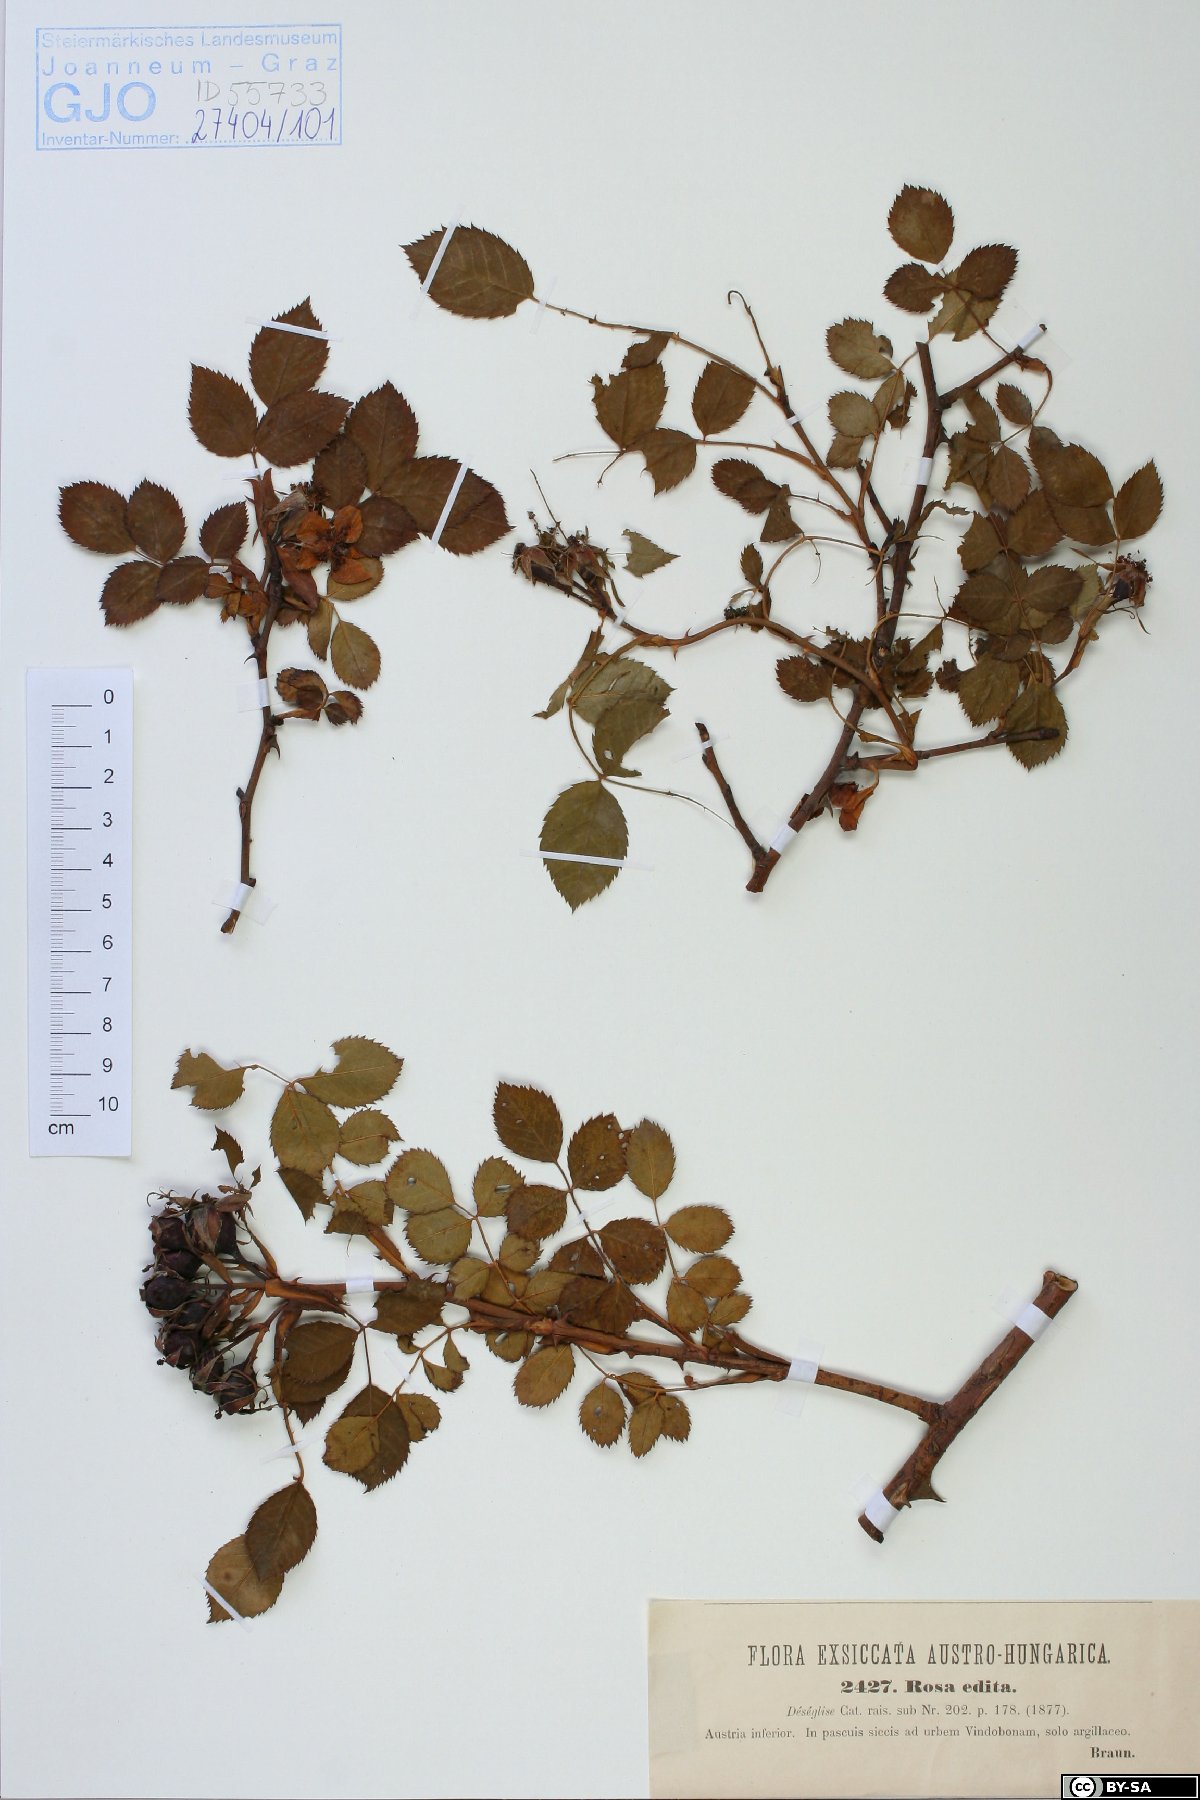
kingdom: Plantae
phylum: Tracheophyta
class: Magnoliopsida
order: Rosales
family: Rosaceae
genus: Rosa
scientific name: Rosa canina
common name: Dog rose
